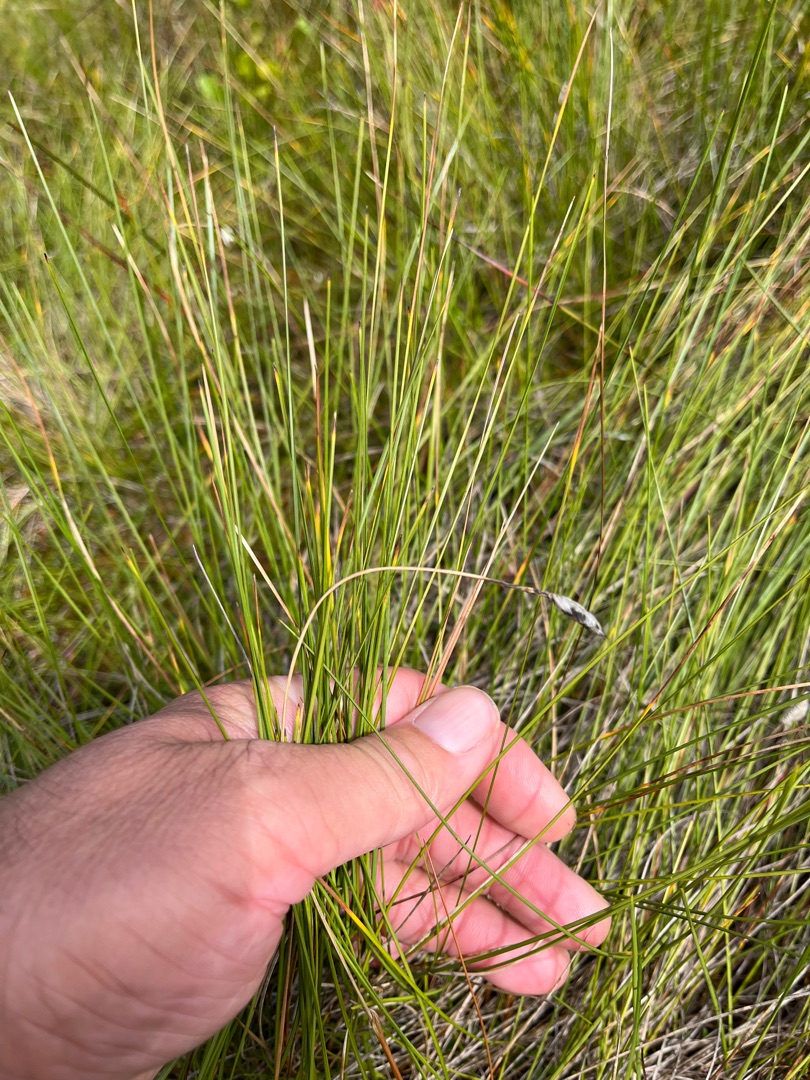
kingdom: Plantae
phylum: Tracheophyta
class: Liliopsida
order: Poales
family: Cyperaceae
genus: Eriophorum
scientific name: Eriophorum vaginatum
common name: Tue-kæruld
